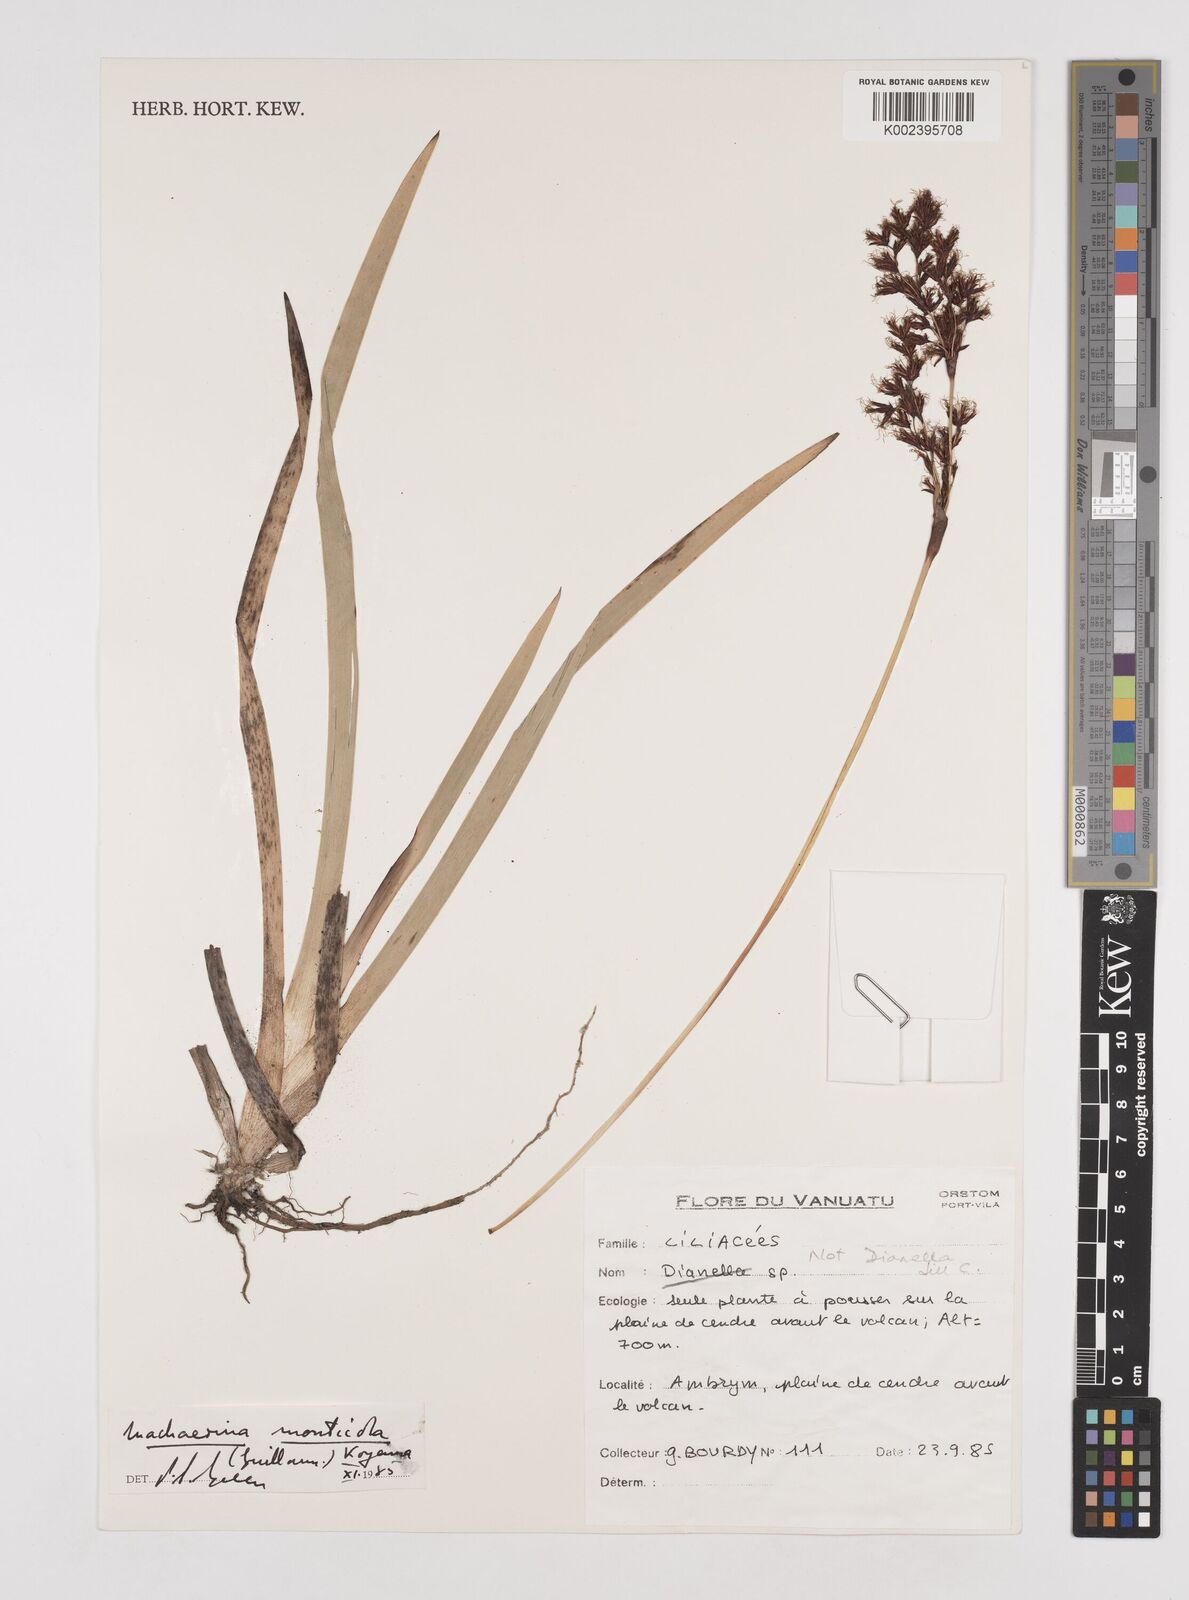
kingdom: Plantae
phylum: Tracheophyta
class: Liliopsida
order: Poales
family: Cyperaceae
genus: Machaerina
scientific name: Machaerina sinclairii
